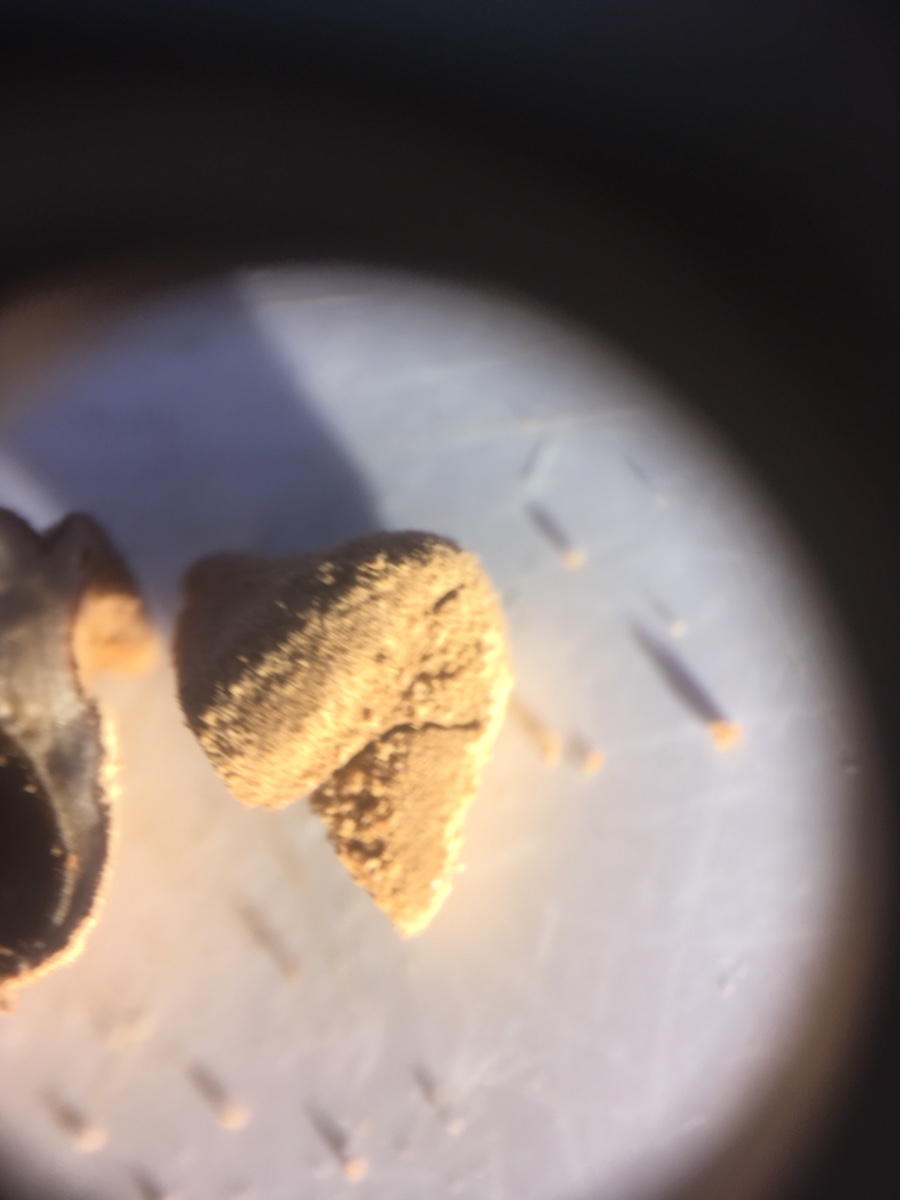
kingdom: Fungi
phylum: Ascomycota
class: Leotiomycetes
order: Helotiales
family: Cenangiaceae
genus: Encoelia
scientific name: Encoelia furfuracea
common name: hassel-læderskive
